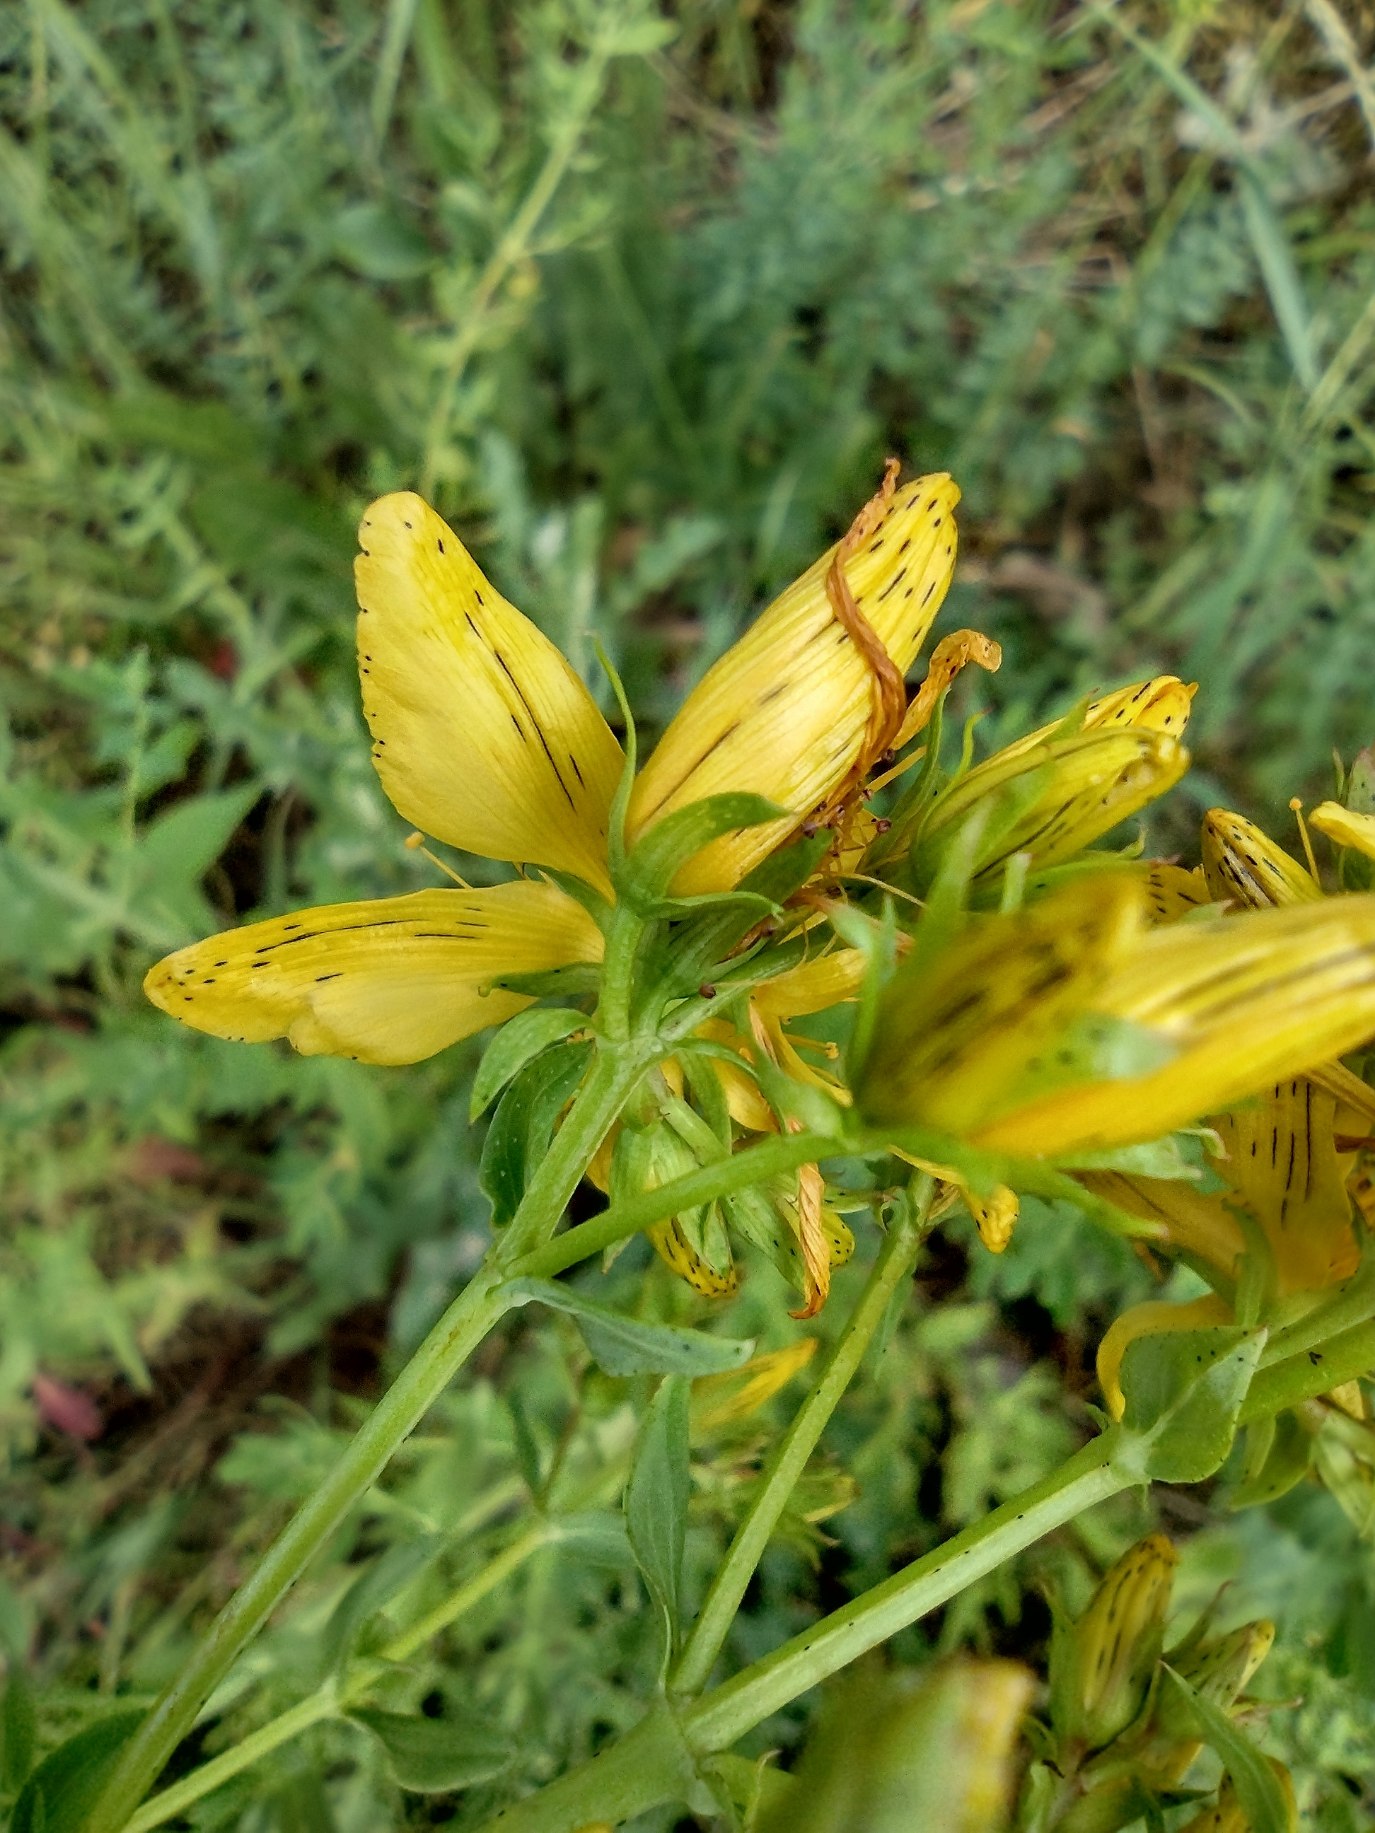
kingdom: Plantae
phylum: Tracheophyta
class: Magnoliopsida
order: Malpighiales
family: Hypericaceae
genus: Hypericum
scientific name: Hypericum perforatum
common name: Prikbladet perikon
